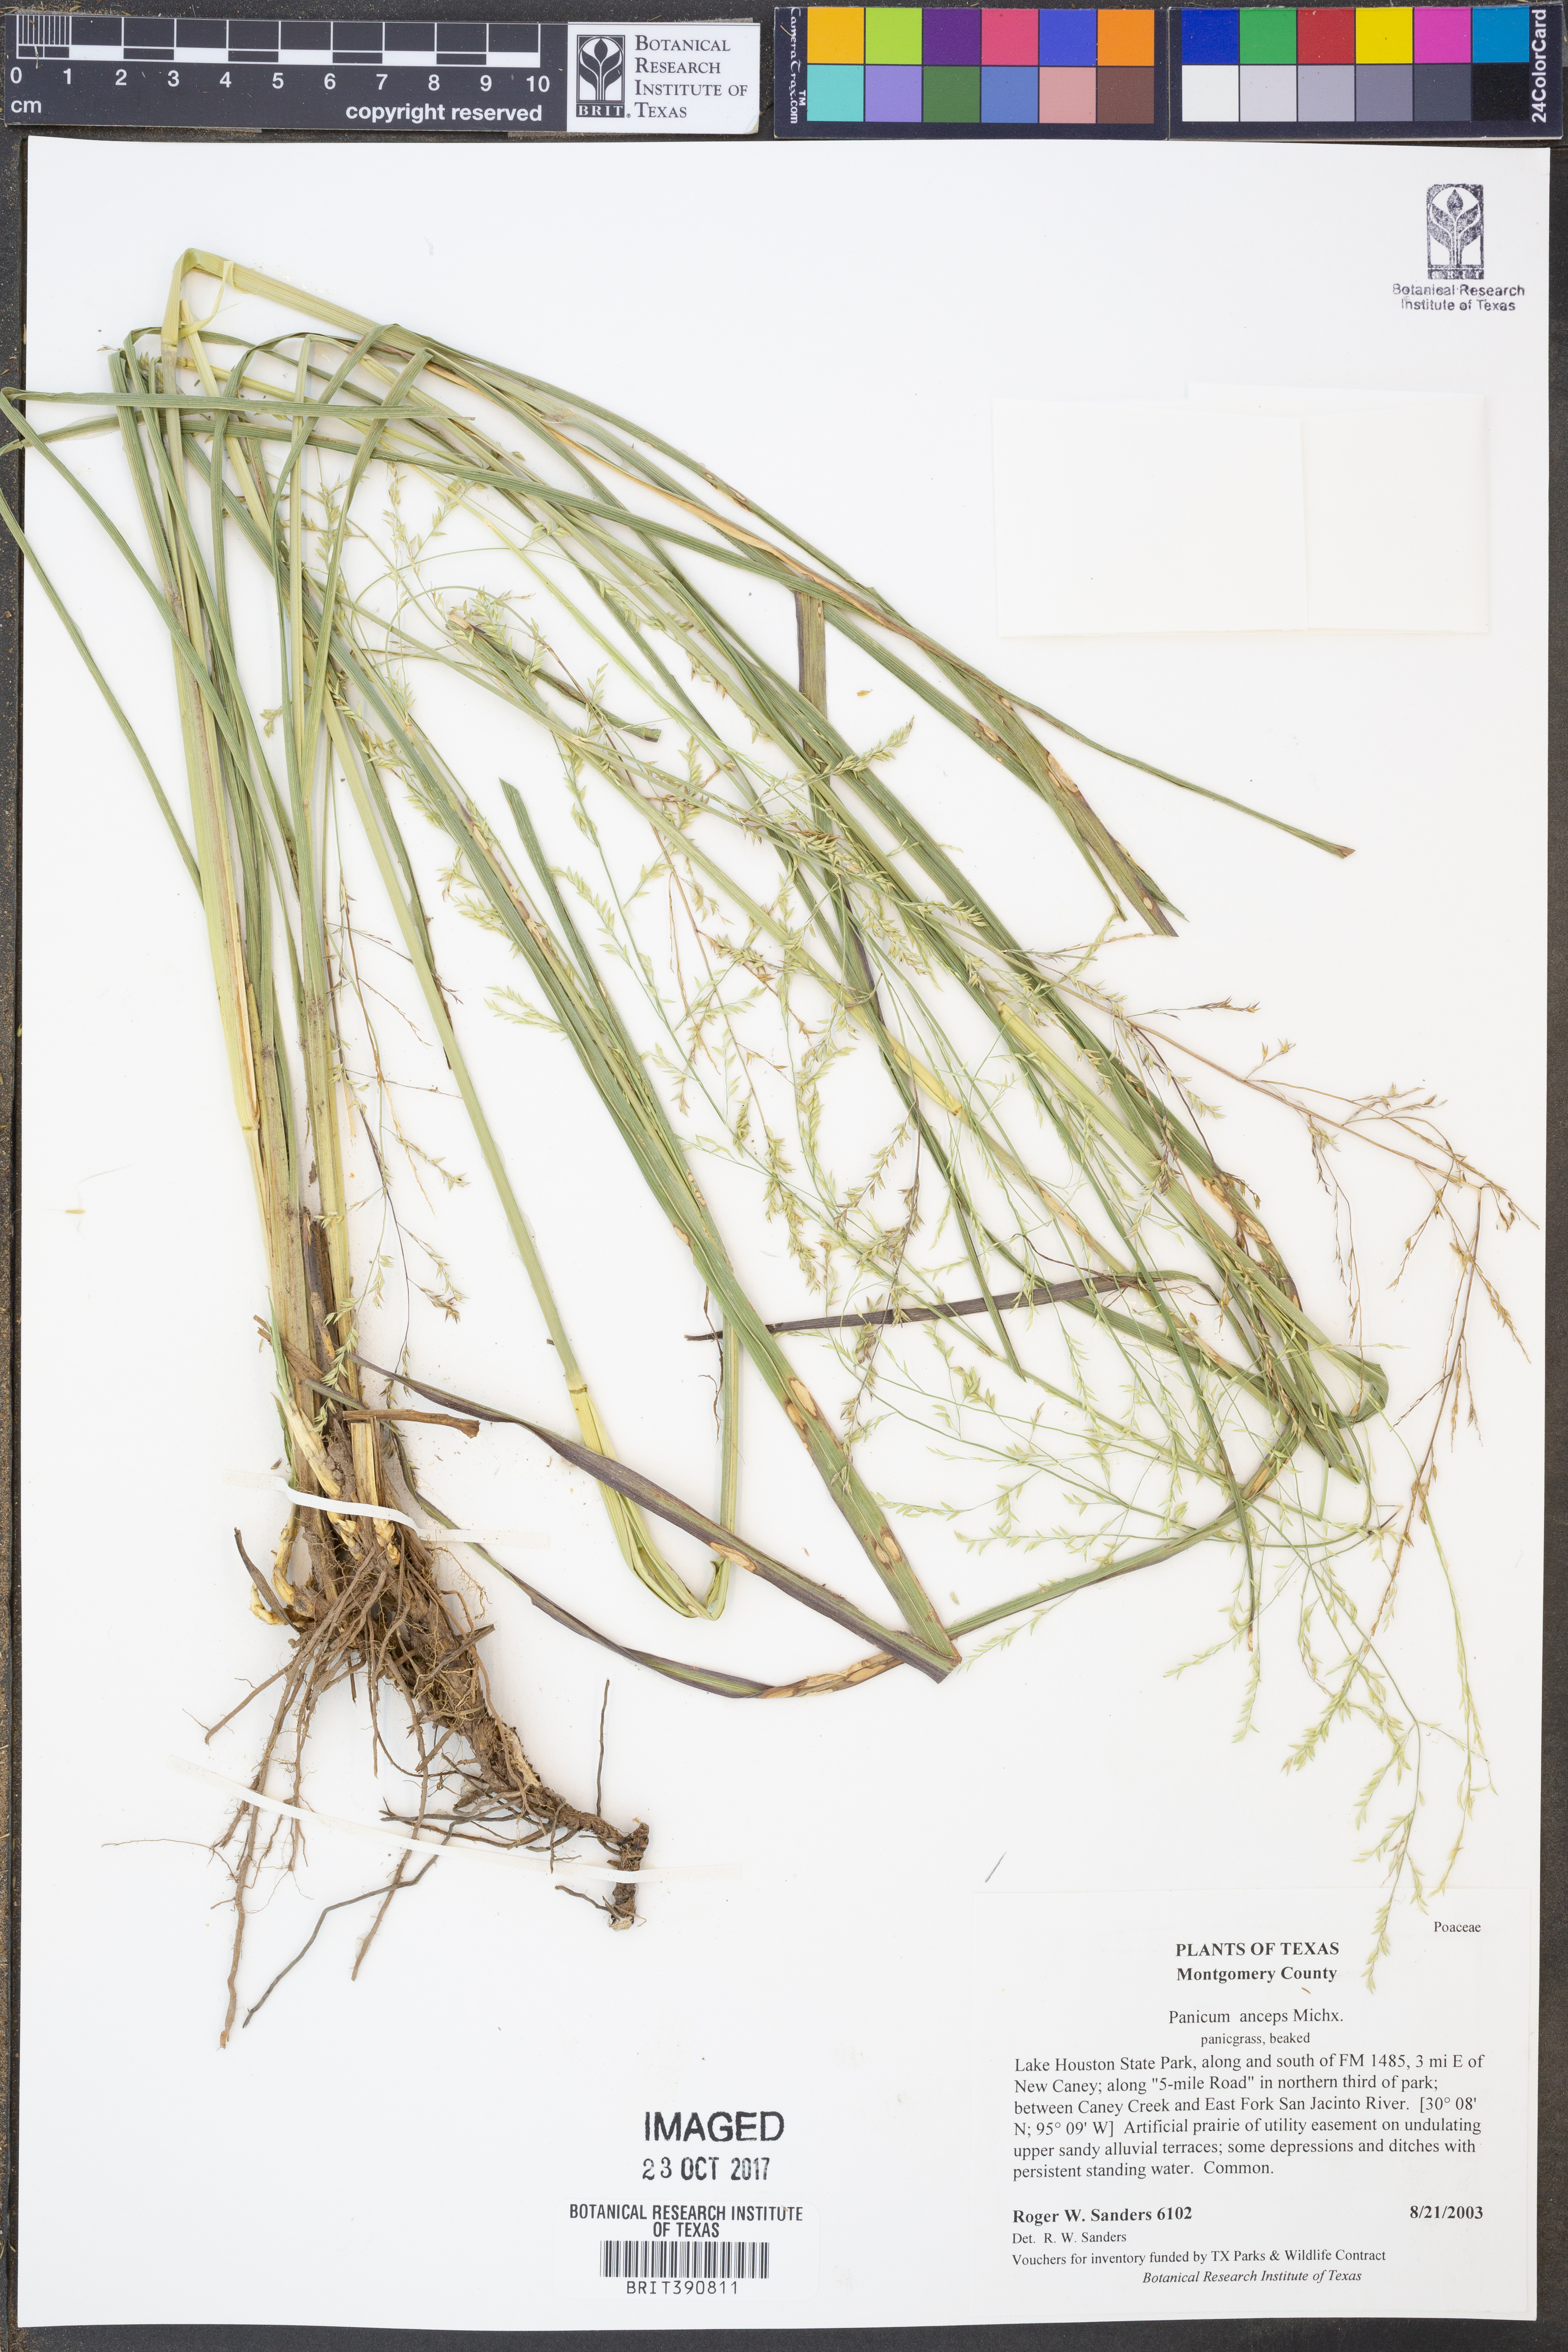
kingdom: Plantae
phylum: Tracheophyta
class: Liliopsida
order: Poales
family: Poaceae
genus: Coleataenia
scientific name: Coleataenia anceps
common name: Beaked panic grass
